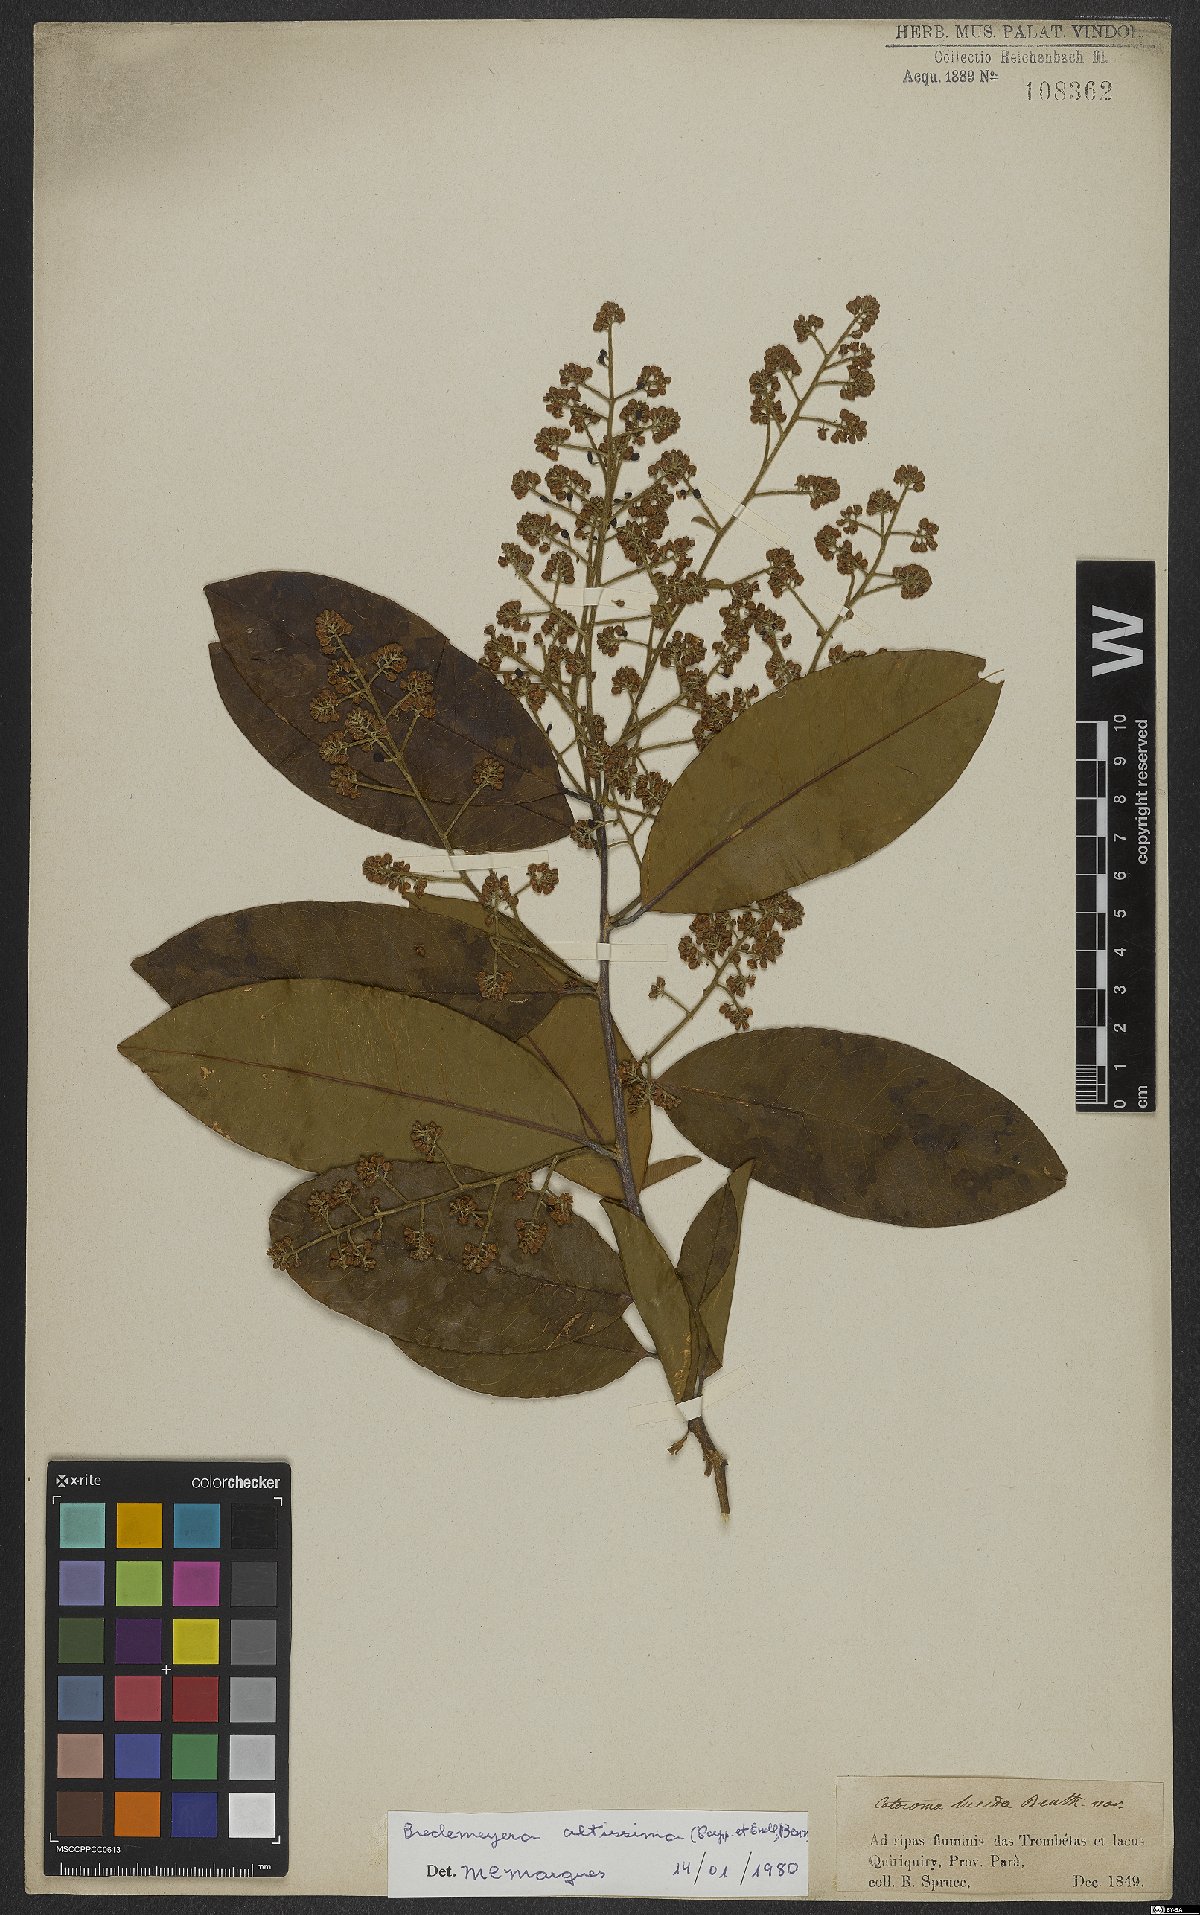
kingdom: Plantae
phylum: Tracheophyta
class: Magnoliopsida
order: Fabales
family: Polygalaceae
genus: Bredemeyera
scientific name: Bredemeyera divaricata
